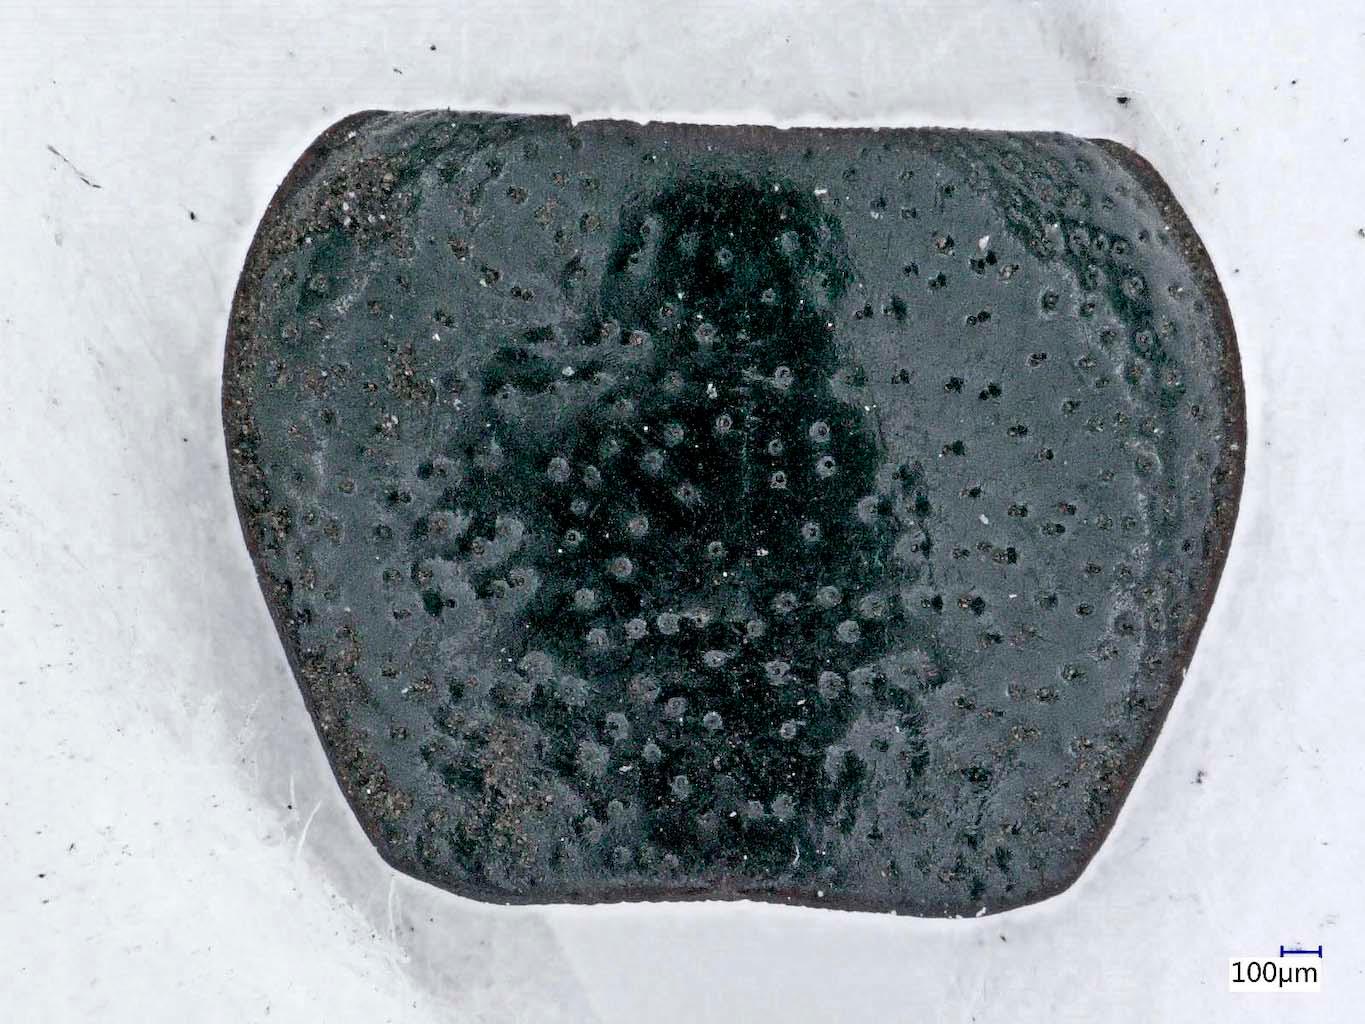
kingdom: Animalia
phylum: Arthropoda
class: Insecta
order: Coleoptera
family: Carabidae
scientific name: Carabidae
